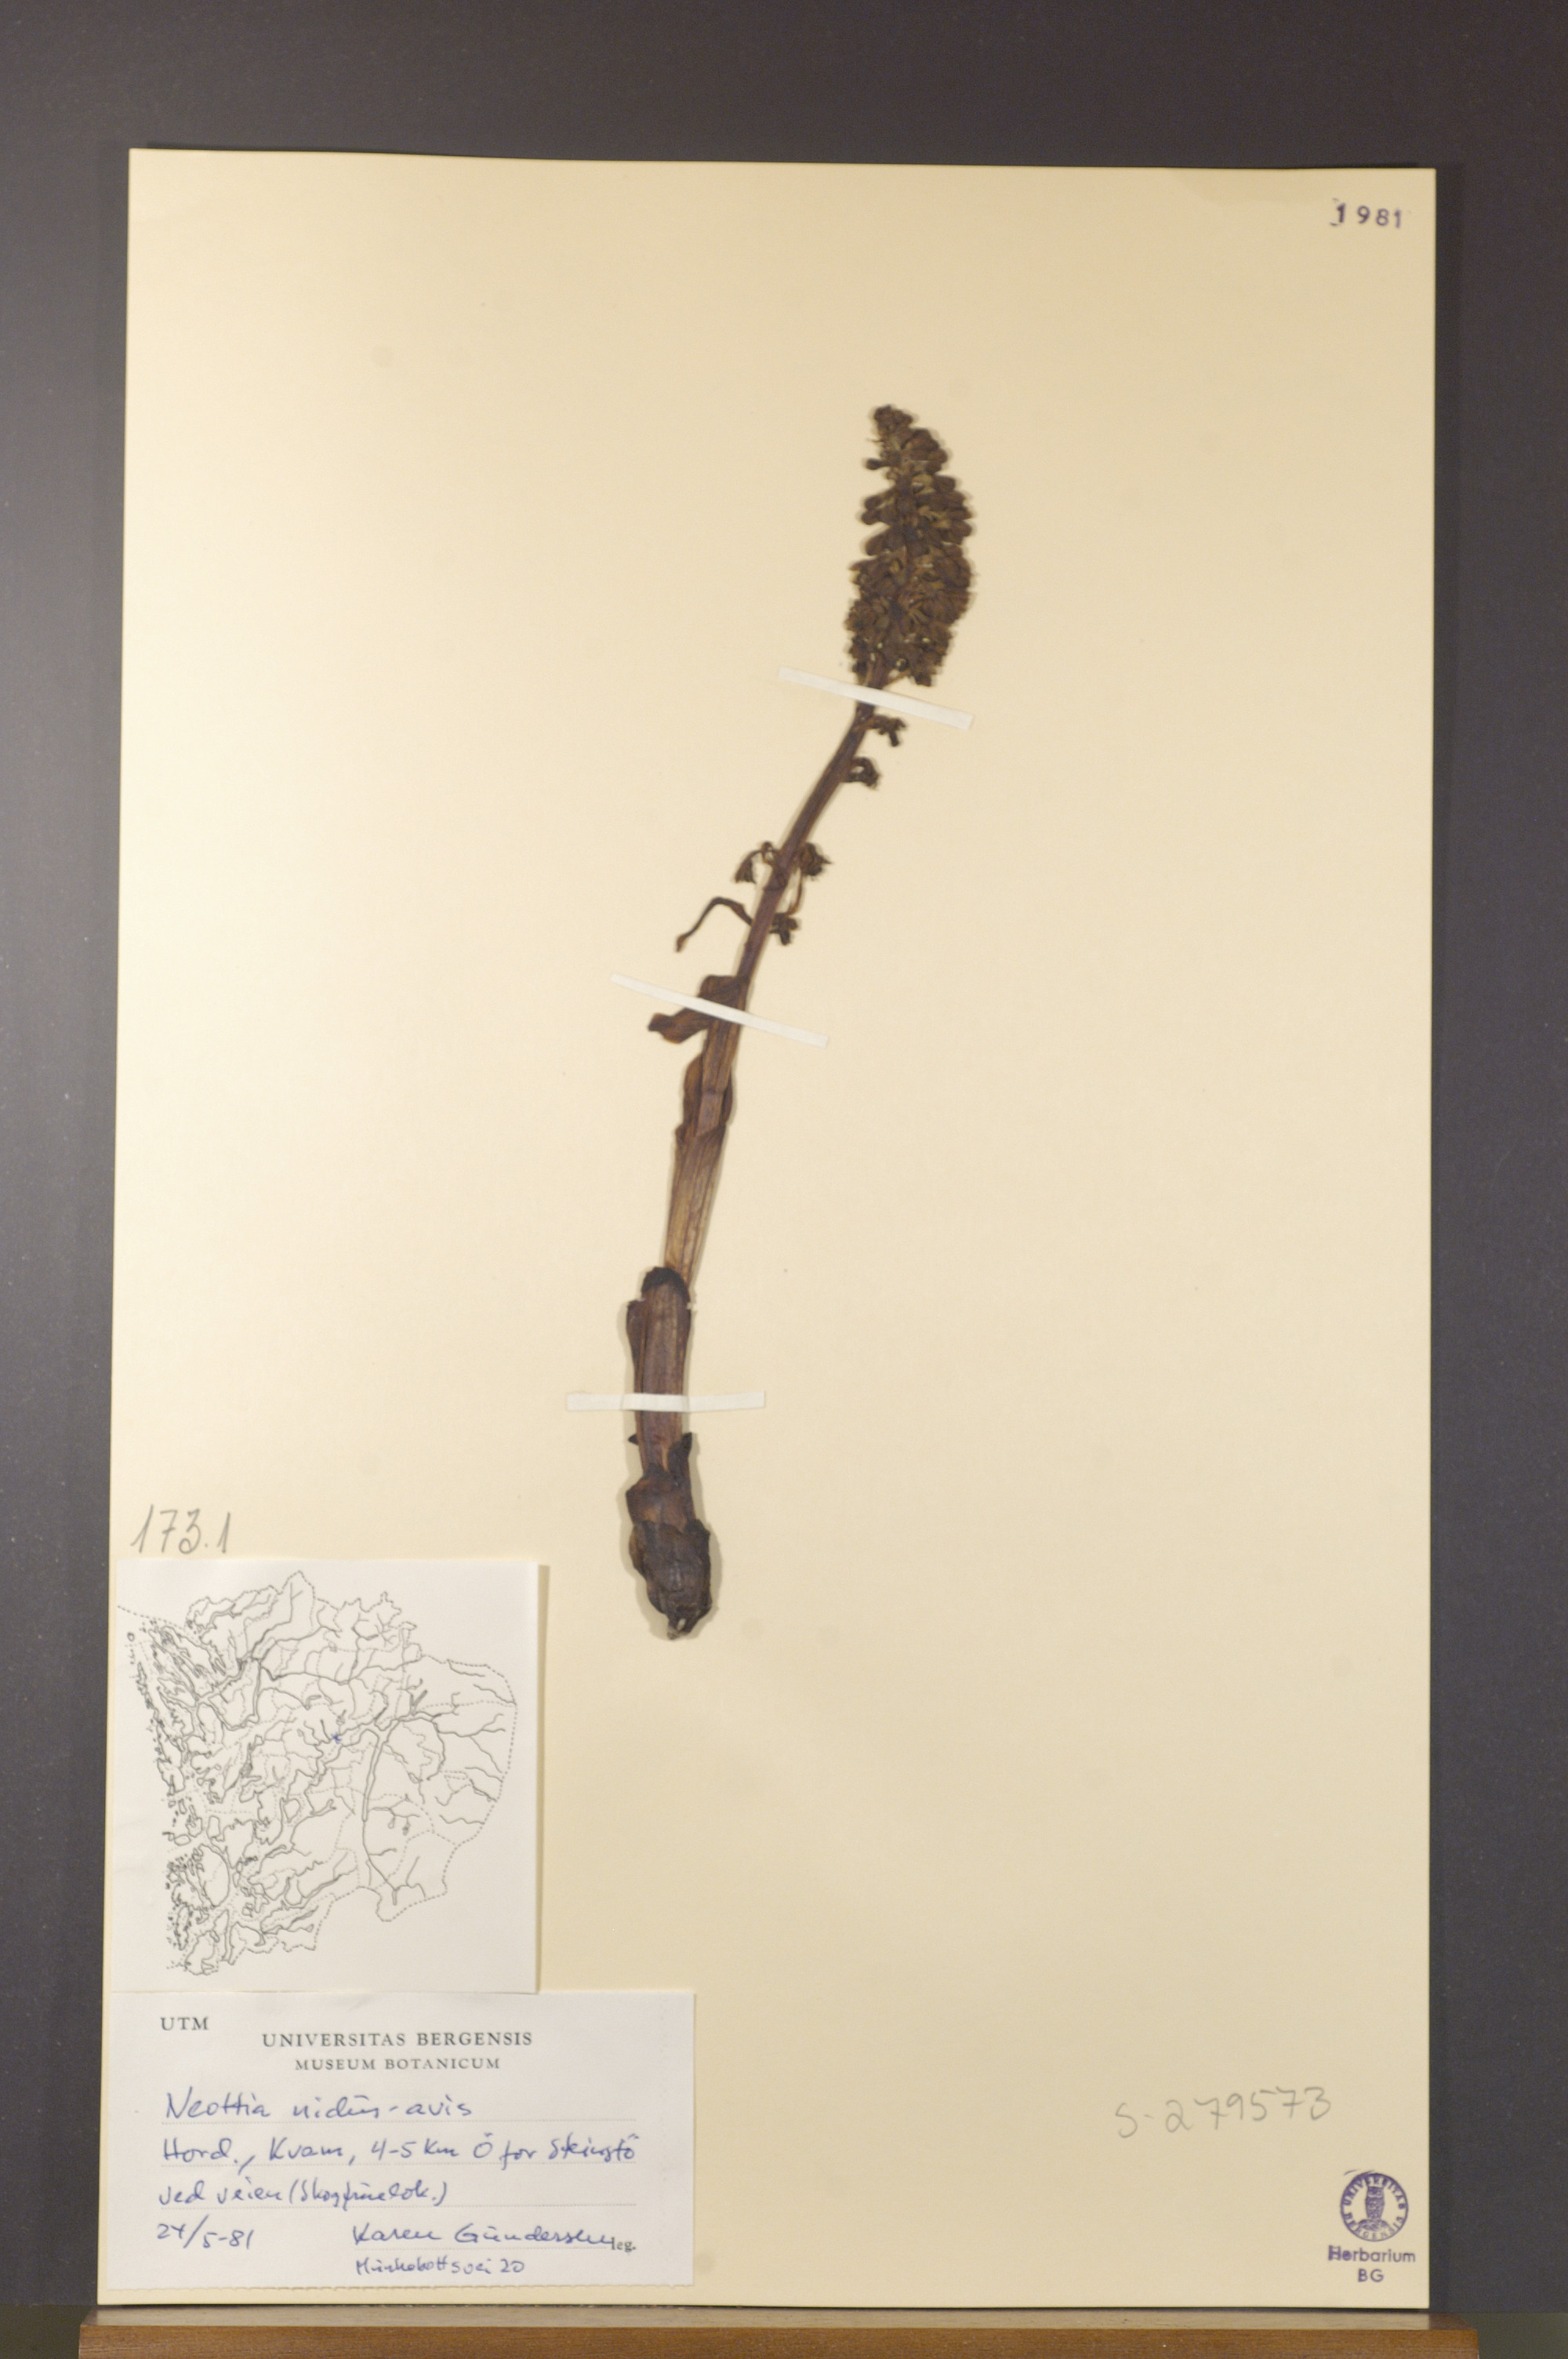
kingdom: Plantae
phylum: Tracheophyta
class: Liliopsida
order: Asparagales
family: Orchidaceae
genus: Neottia
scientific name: Neottia nidus-avis
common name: Bird's-nest orchid
